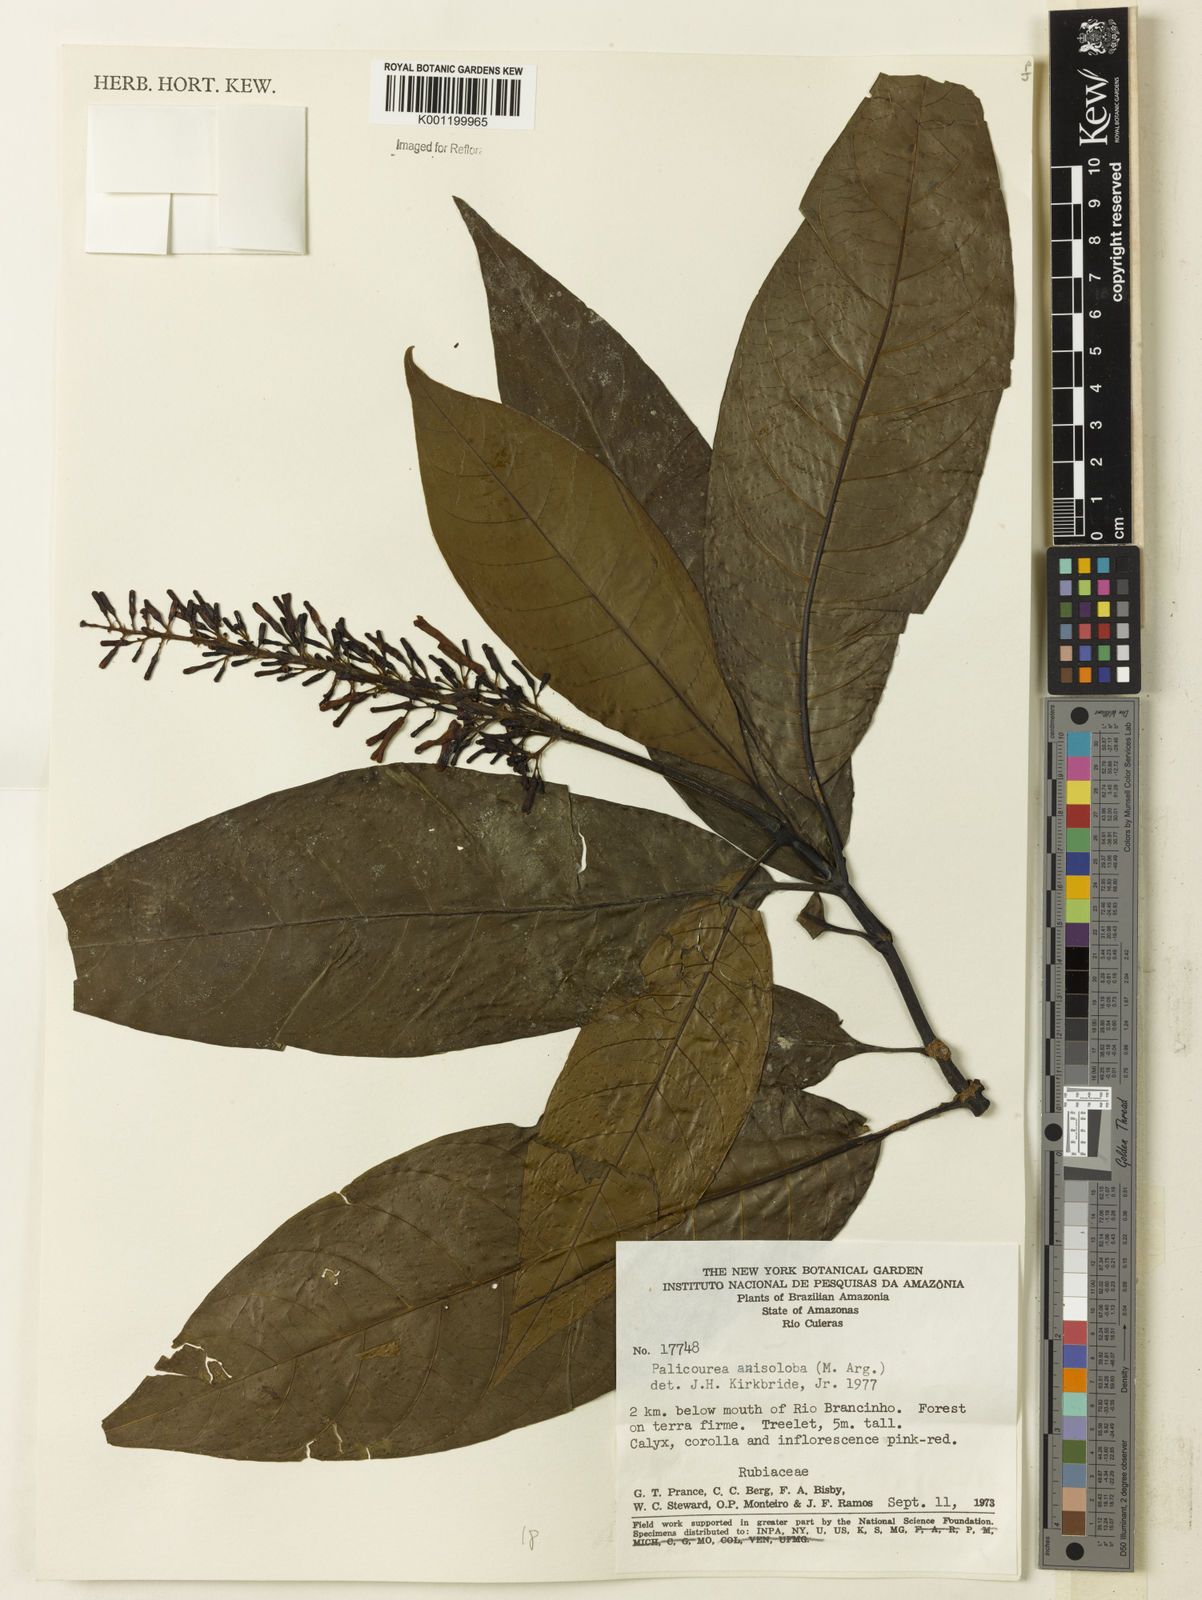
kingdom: Plantae
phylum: Tracheophyta
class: Magnoliopsida
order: Gentianales
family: Rubiaceae
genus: Palicourea
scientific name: Palicourea
